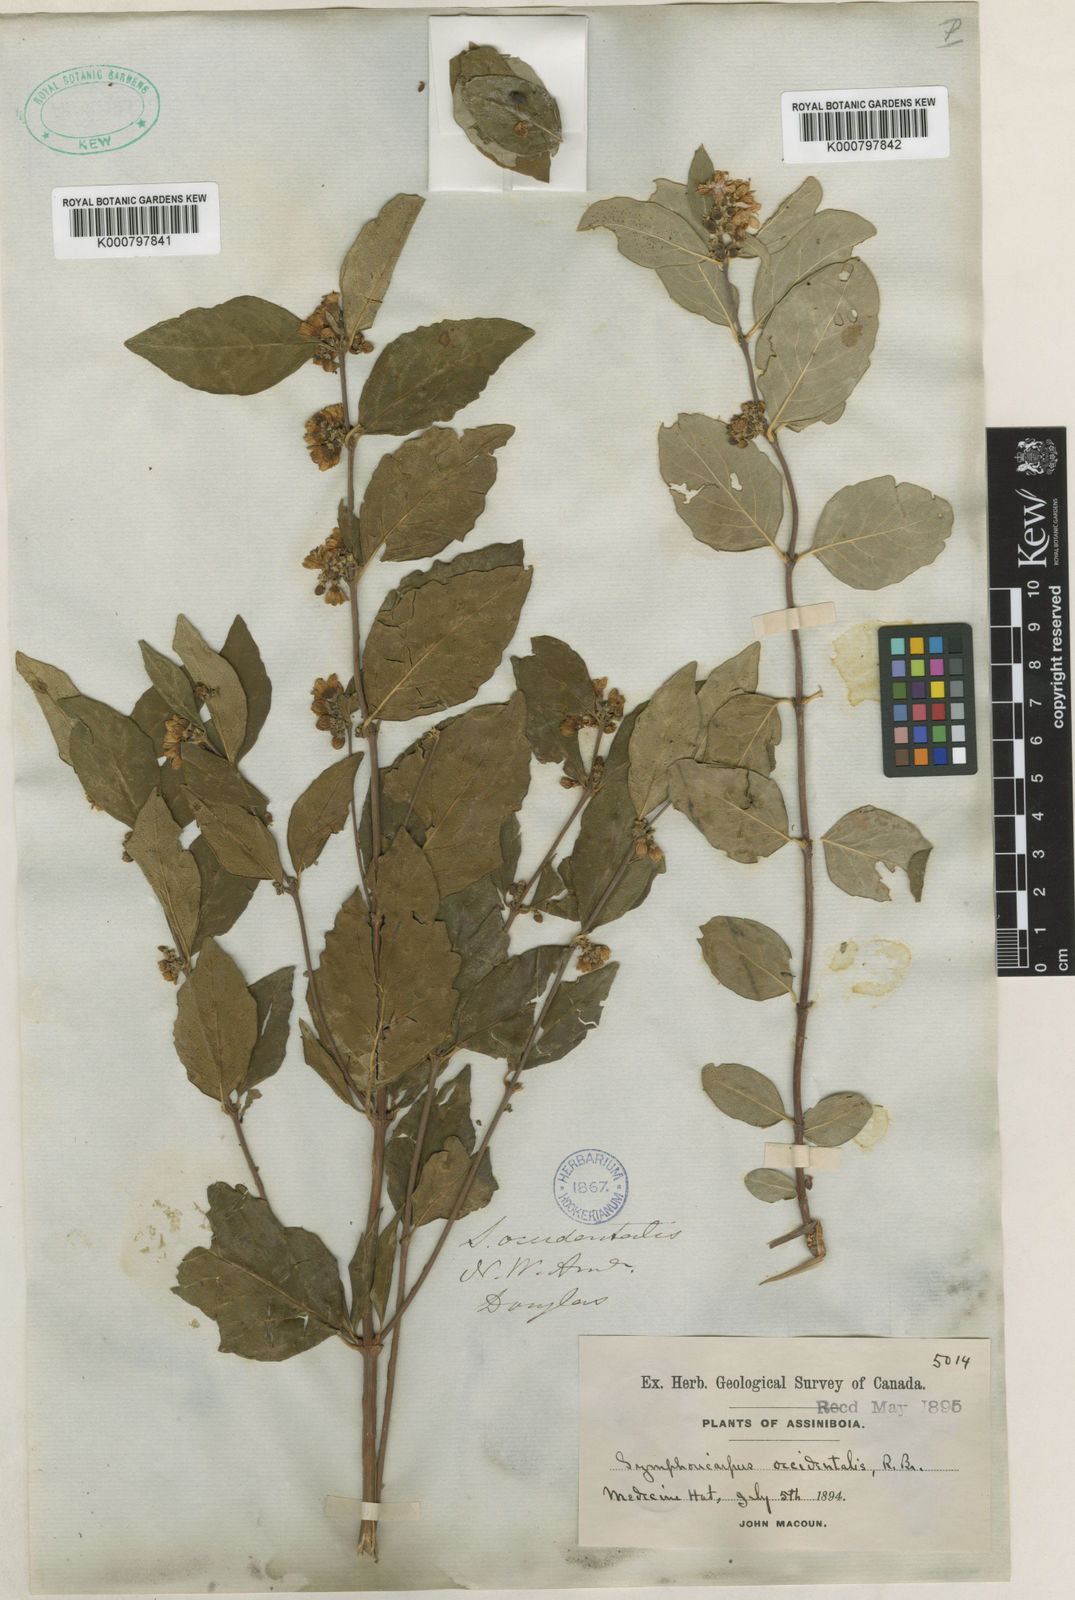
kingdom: Plantae
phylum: Tracheophyta
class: Magnoliopsida
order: Dipsacales
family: Caprifoliaceae
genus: Symphoricarpos
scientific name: Symphoricarpos albus
